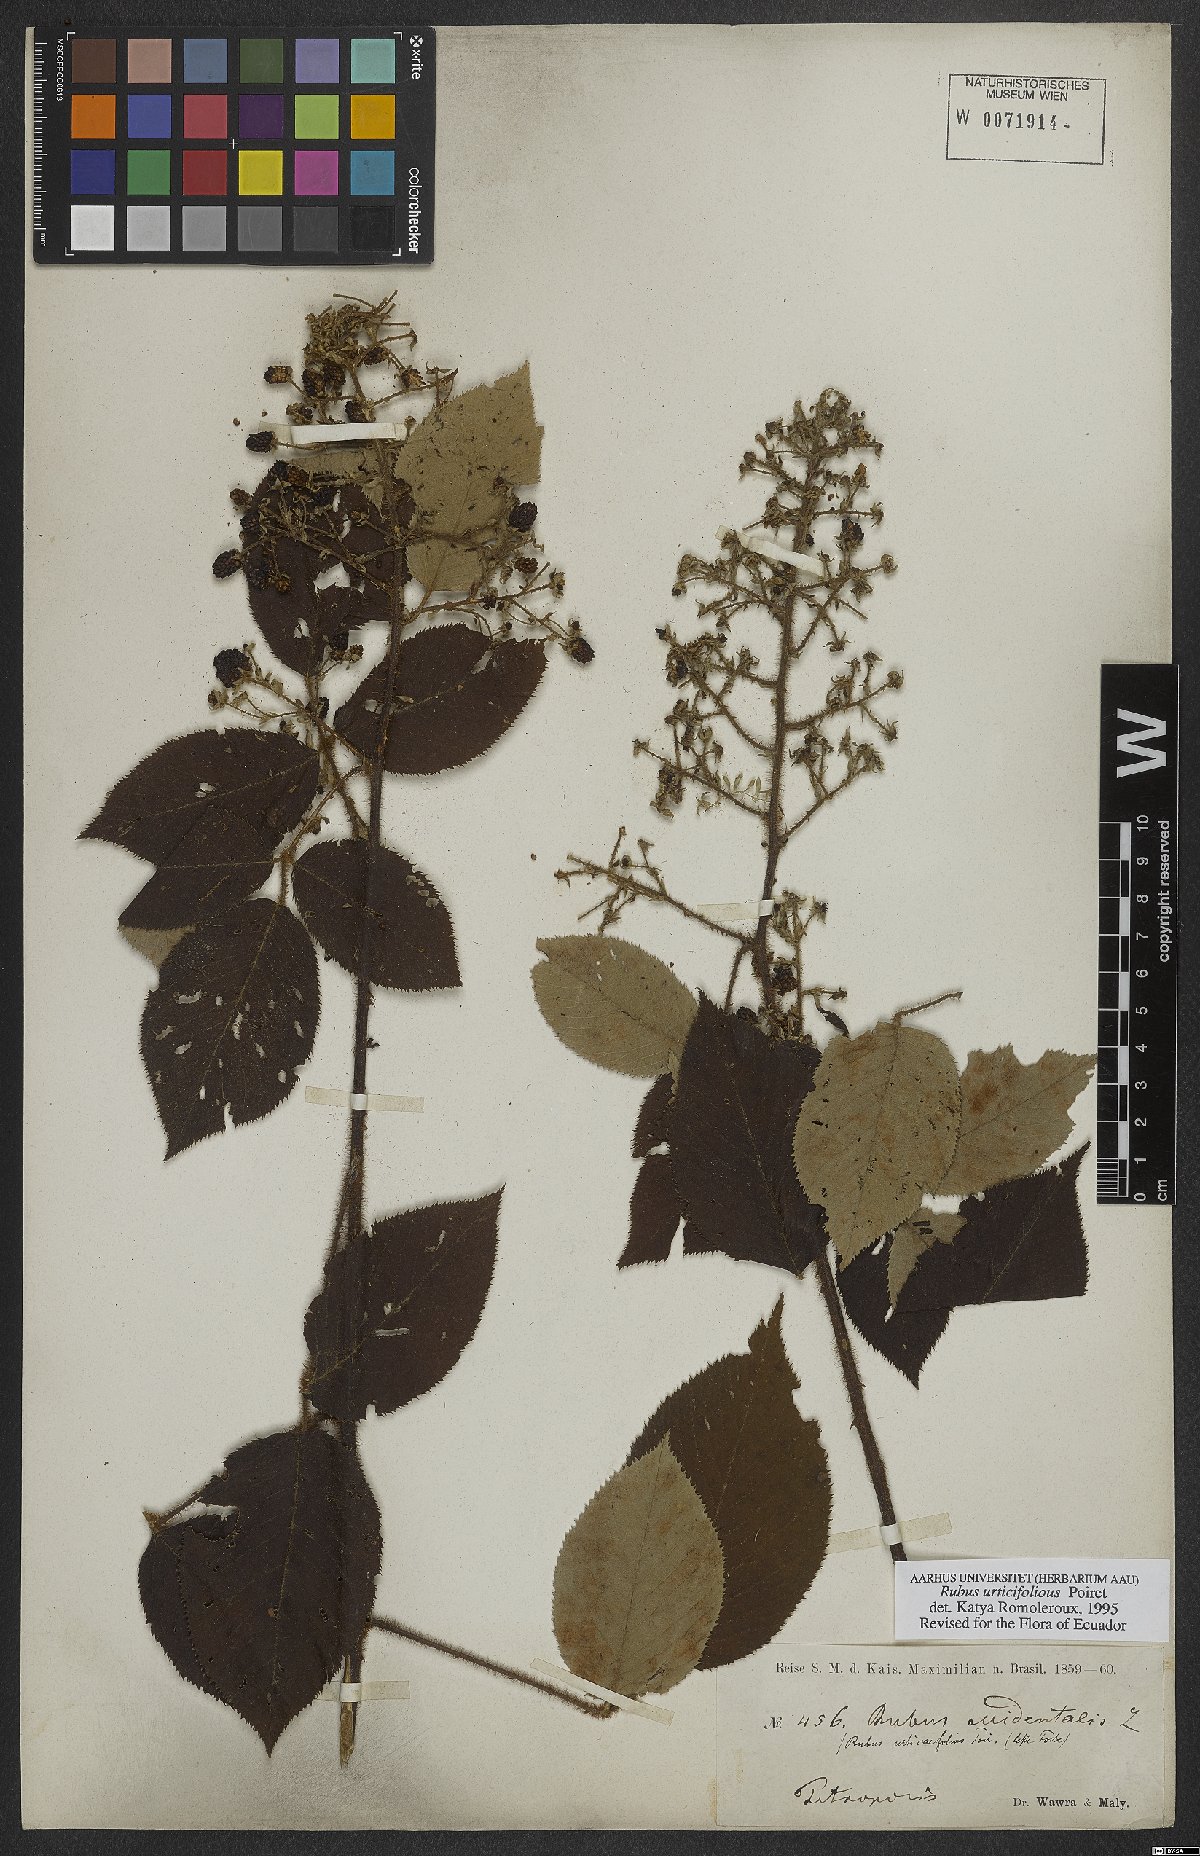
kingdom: Plantae
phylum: Tracheophyta
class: Magnoliopsida
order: Rosales
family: Rosaceae
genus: Rubus
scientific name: Rubus urticifolius
